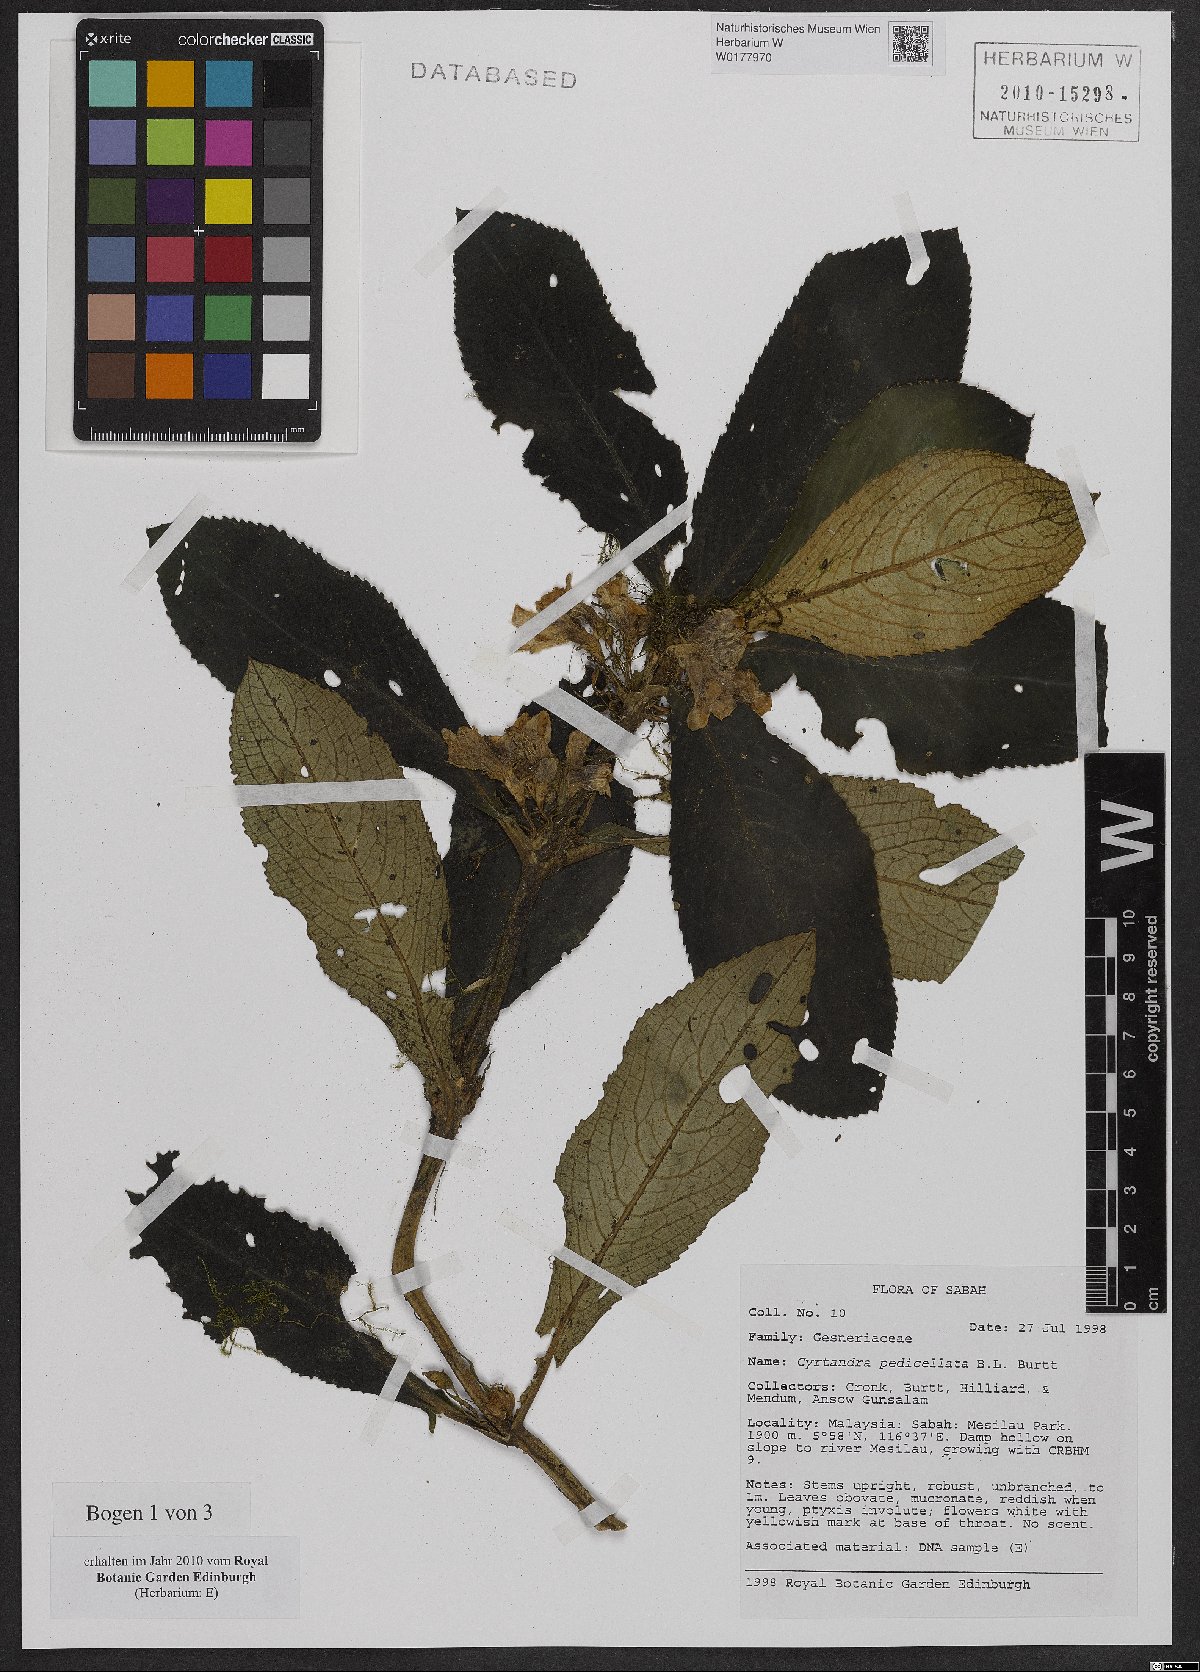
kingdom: Plantae
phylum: Tracheophyta
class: Magnoliopsida
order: Lamiales
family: Gesneriaceae
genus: Cyrtandra
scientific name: Cyrtandra pedicellata
